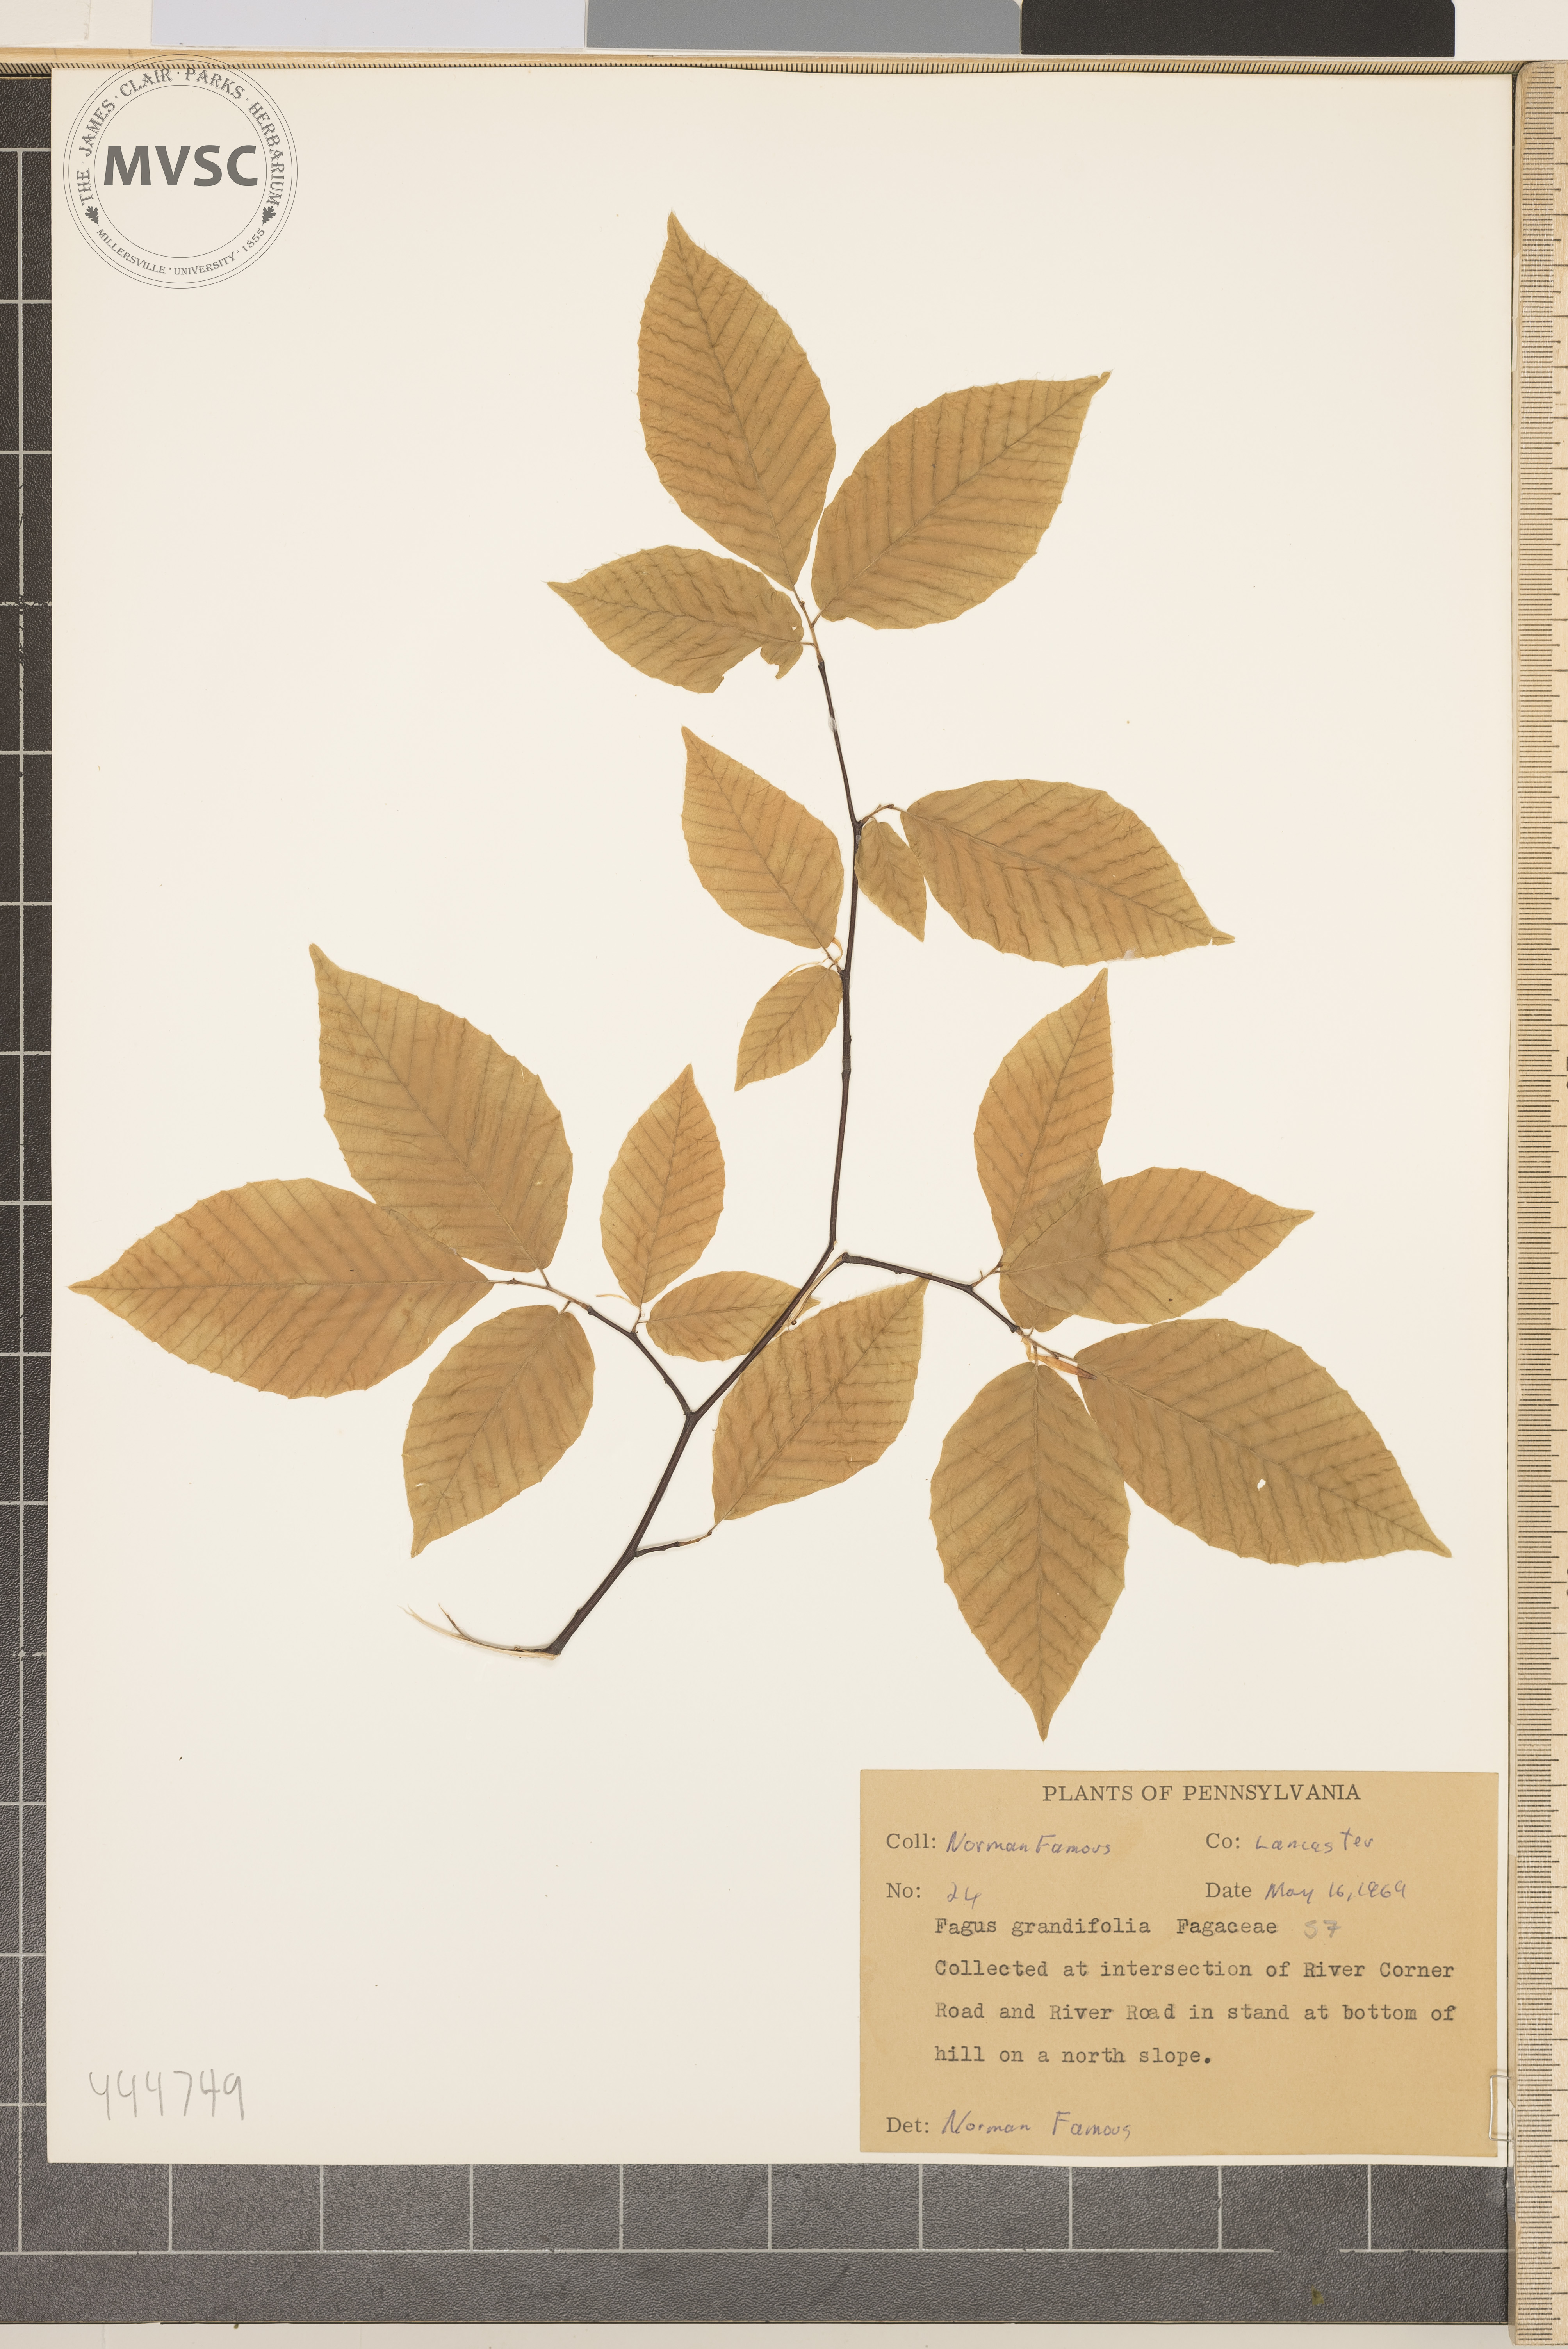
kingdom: Plantae
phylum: Tracheophyta
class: Magnoliopsida
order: Fagales
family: Fagaceae
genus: Fagus
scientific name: Fagus grandifolia
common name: American beech
